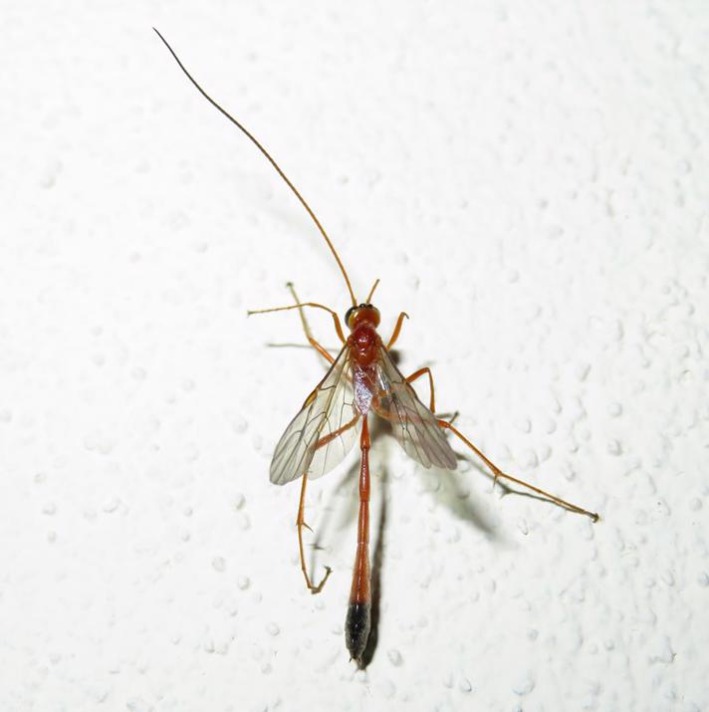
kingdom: Animalia
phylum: Arthropoda
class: Insecta
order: Hymenoptera
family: Ichneumonidae
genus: Enicospilus
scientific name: Enicospilus ramidulus
